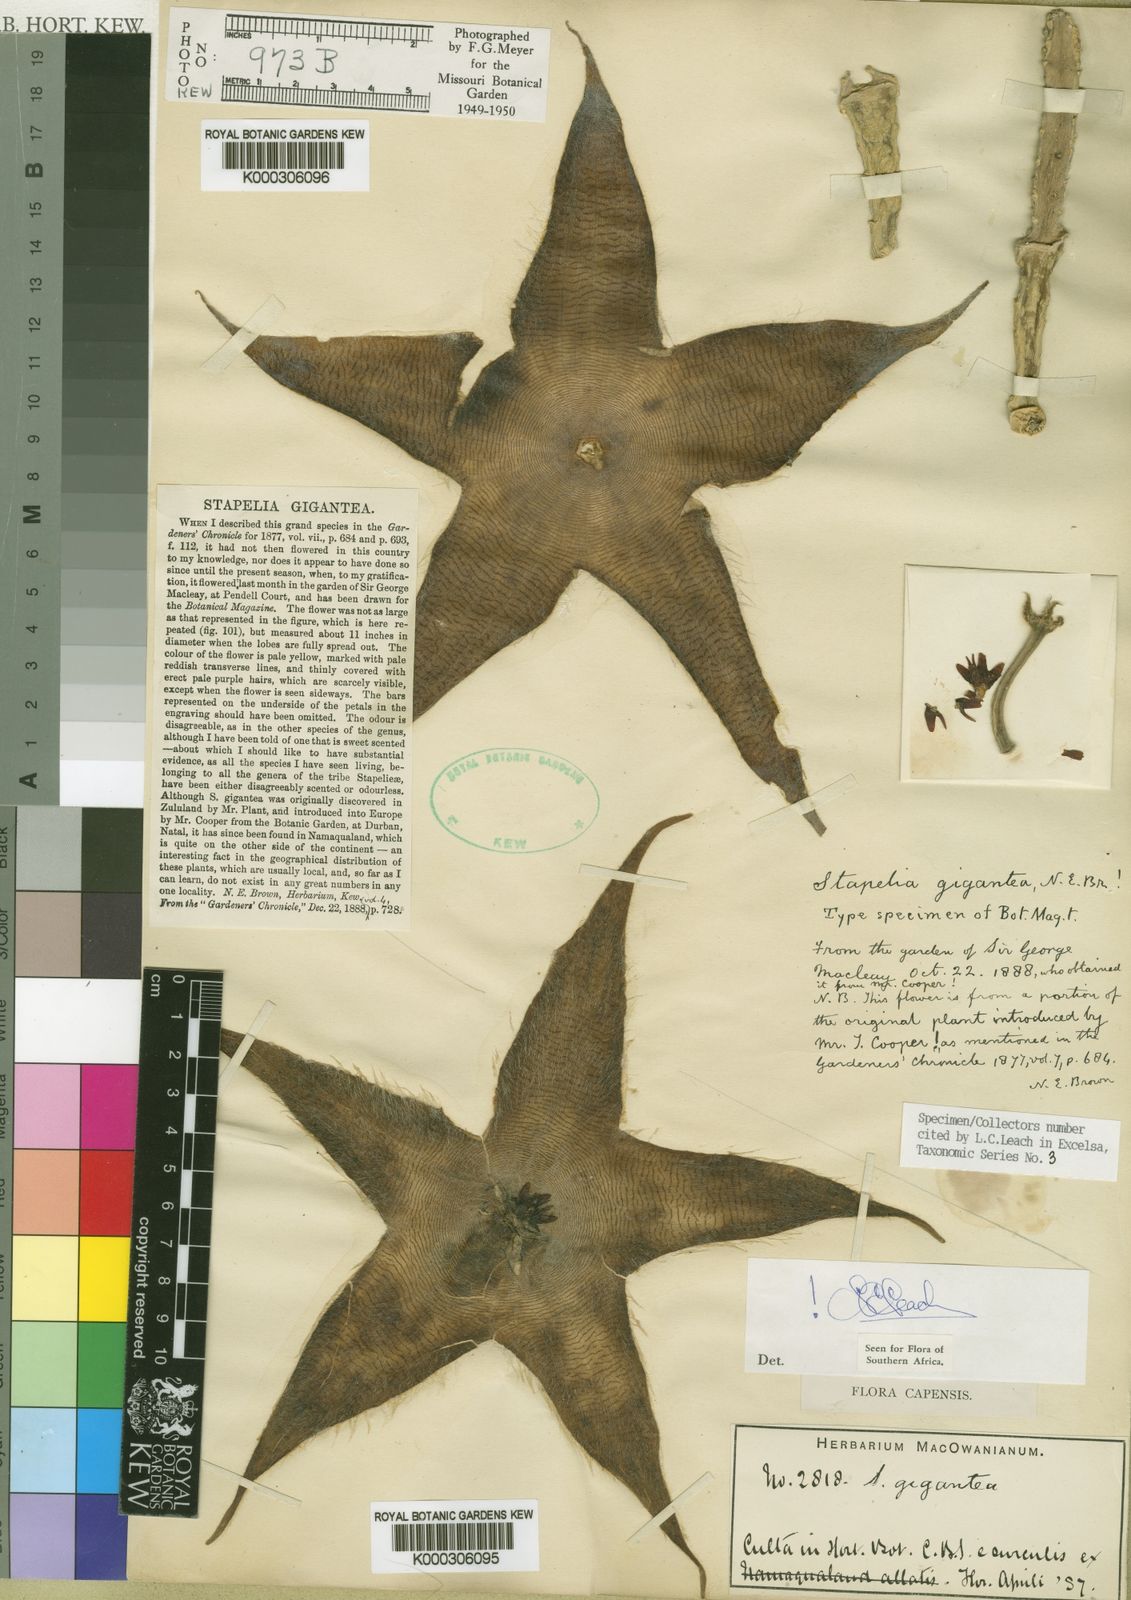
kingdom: Plantae
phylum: Tracheophyta
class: Magnoliopsida
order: Gentianales
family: Apocynaceae
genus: Ceropegia
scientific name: Ceropegia gigantea
